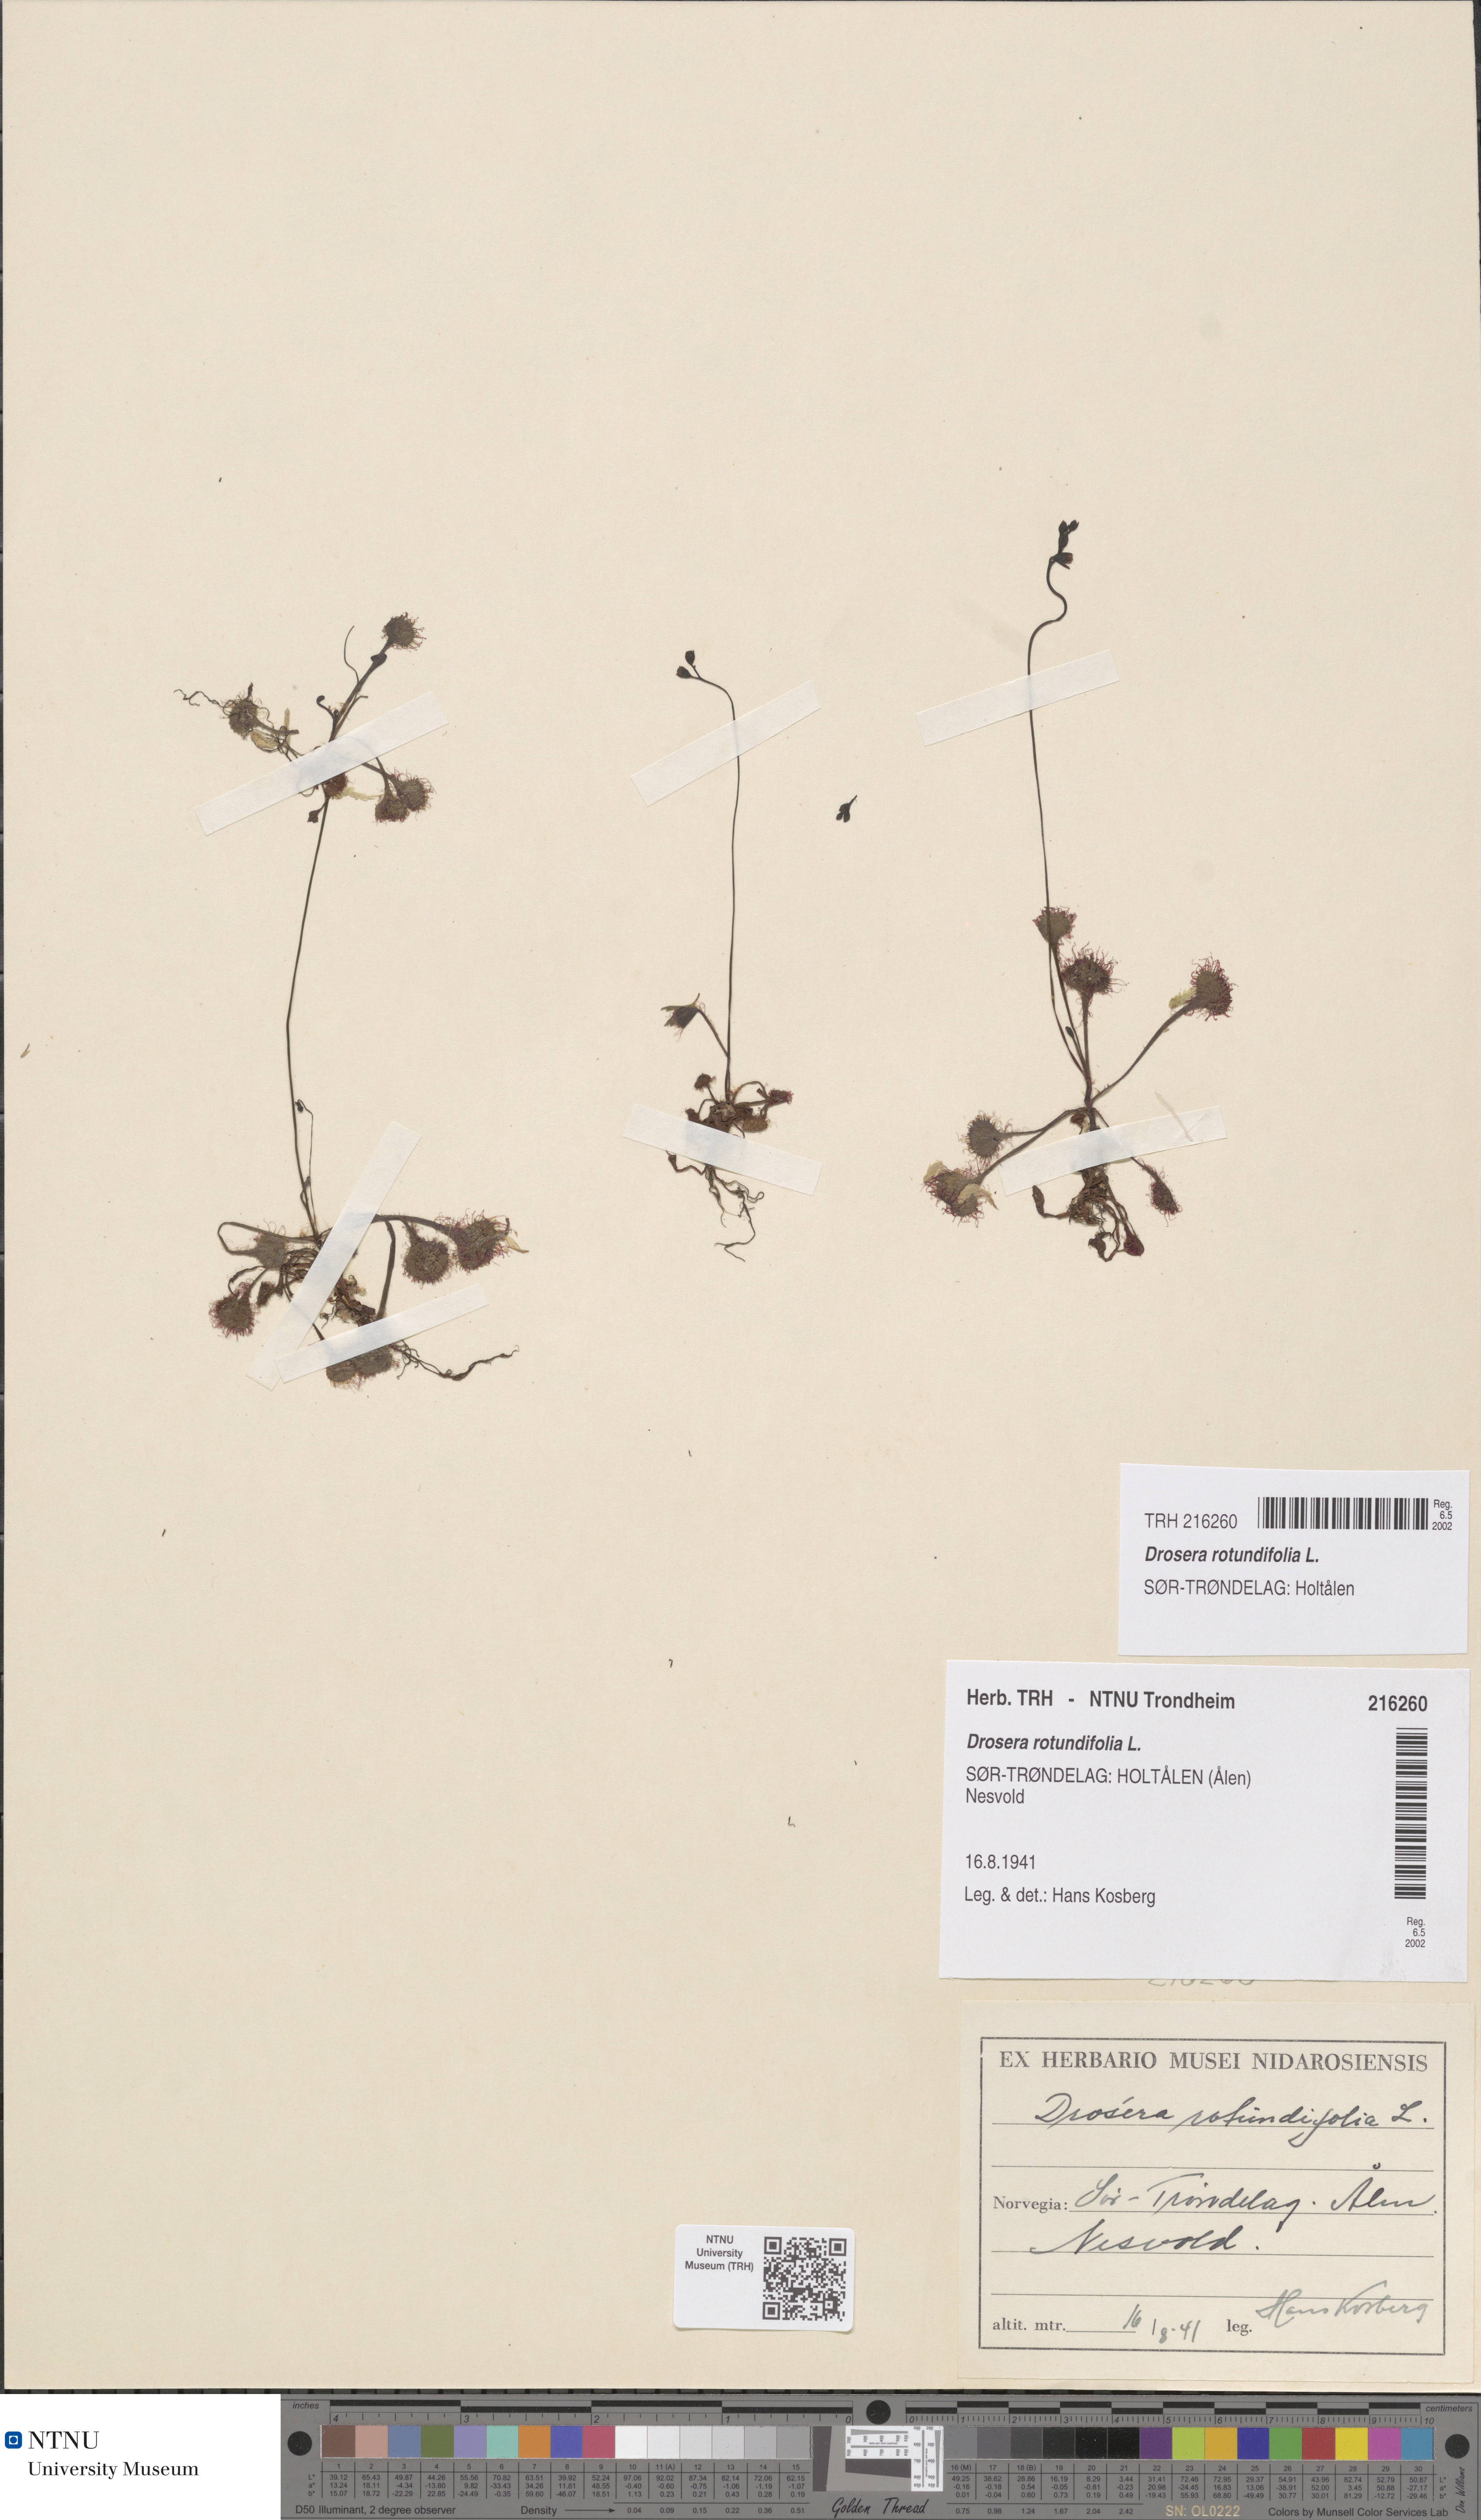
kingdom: Plantae
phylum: Tracheophyta
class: Magnoliopsida
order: Caryophyllales
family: Droseraceae
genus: Drosera
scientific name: Drosera rotundifolia
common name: Round-leaved sundew
